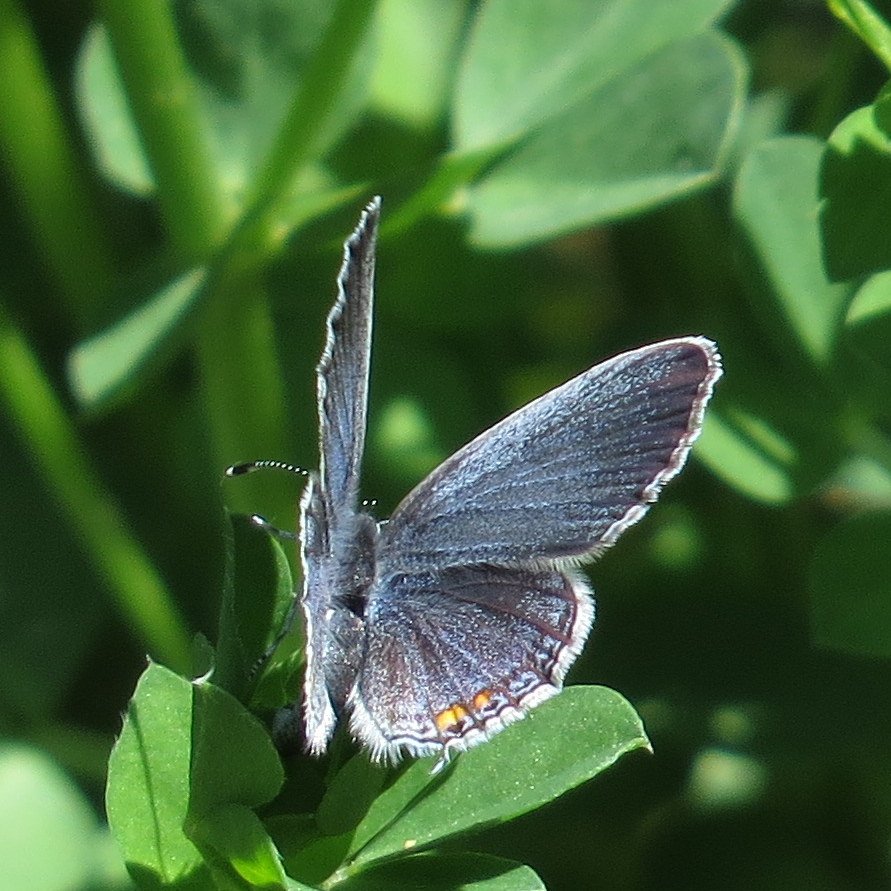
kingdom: Animalia
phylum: Arthropoda
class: Insecta
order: Lepidoptera
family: Lycaenidae
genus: Elkalyce
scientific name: Elkalyce comyntas
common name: Eastern Tailed-Blue
